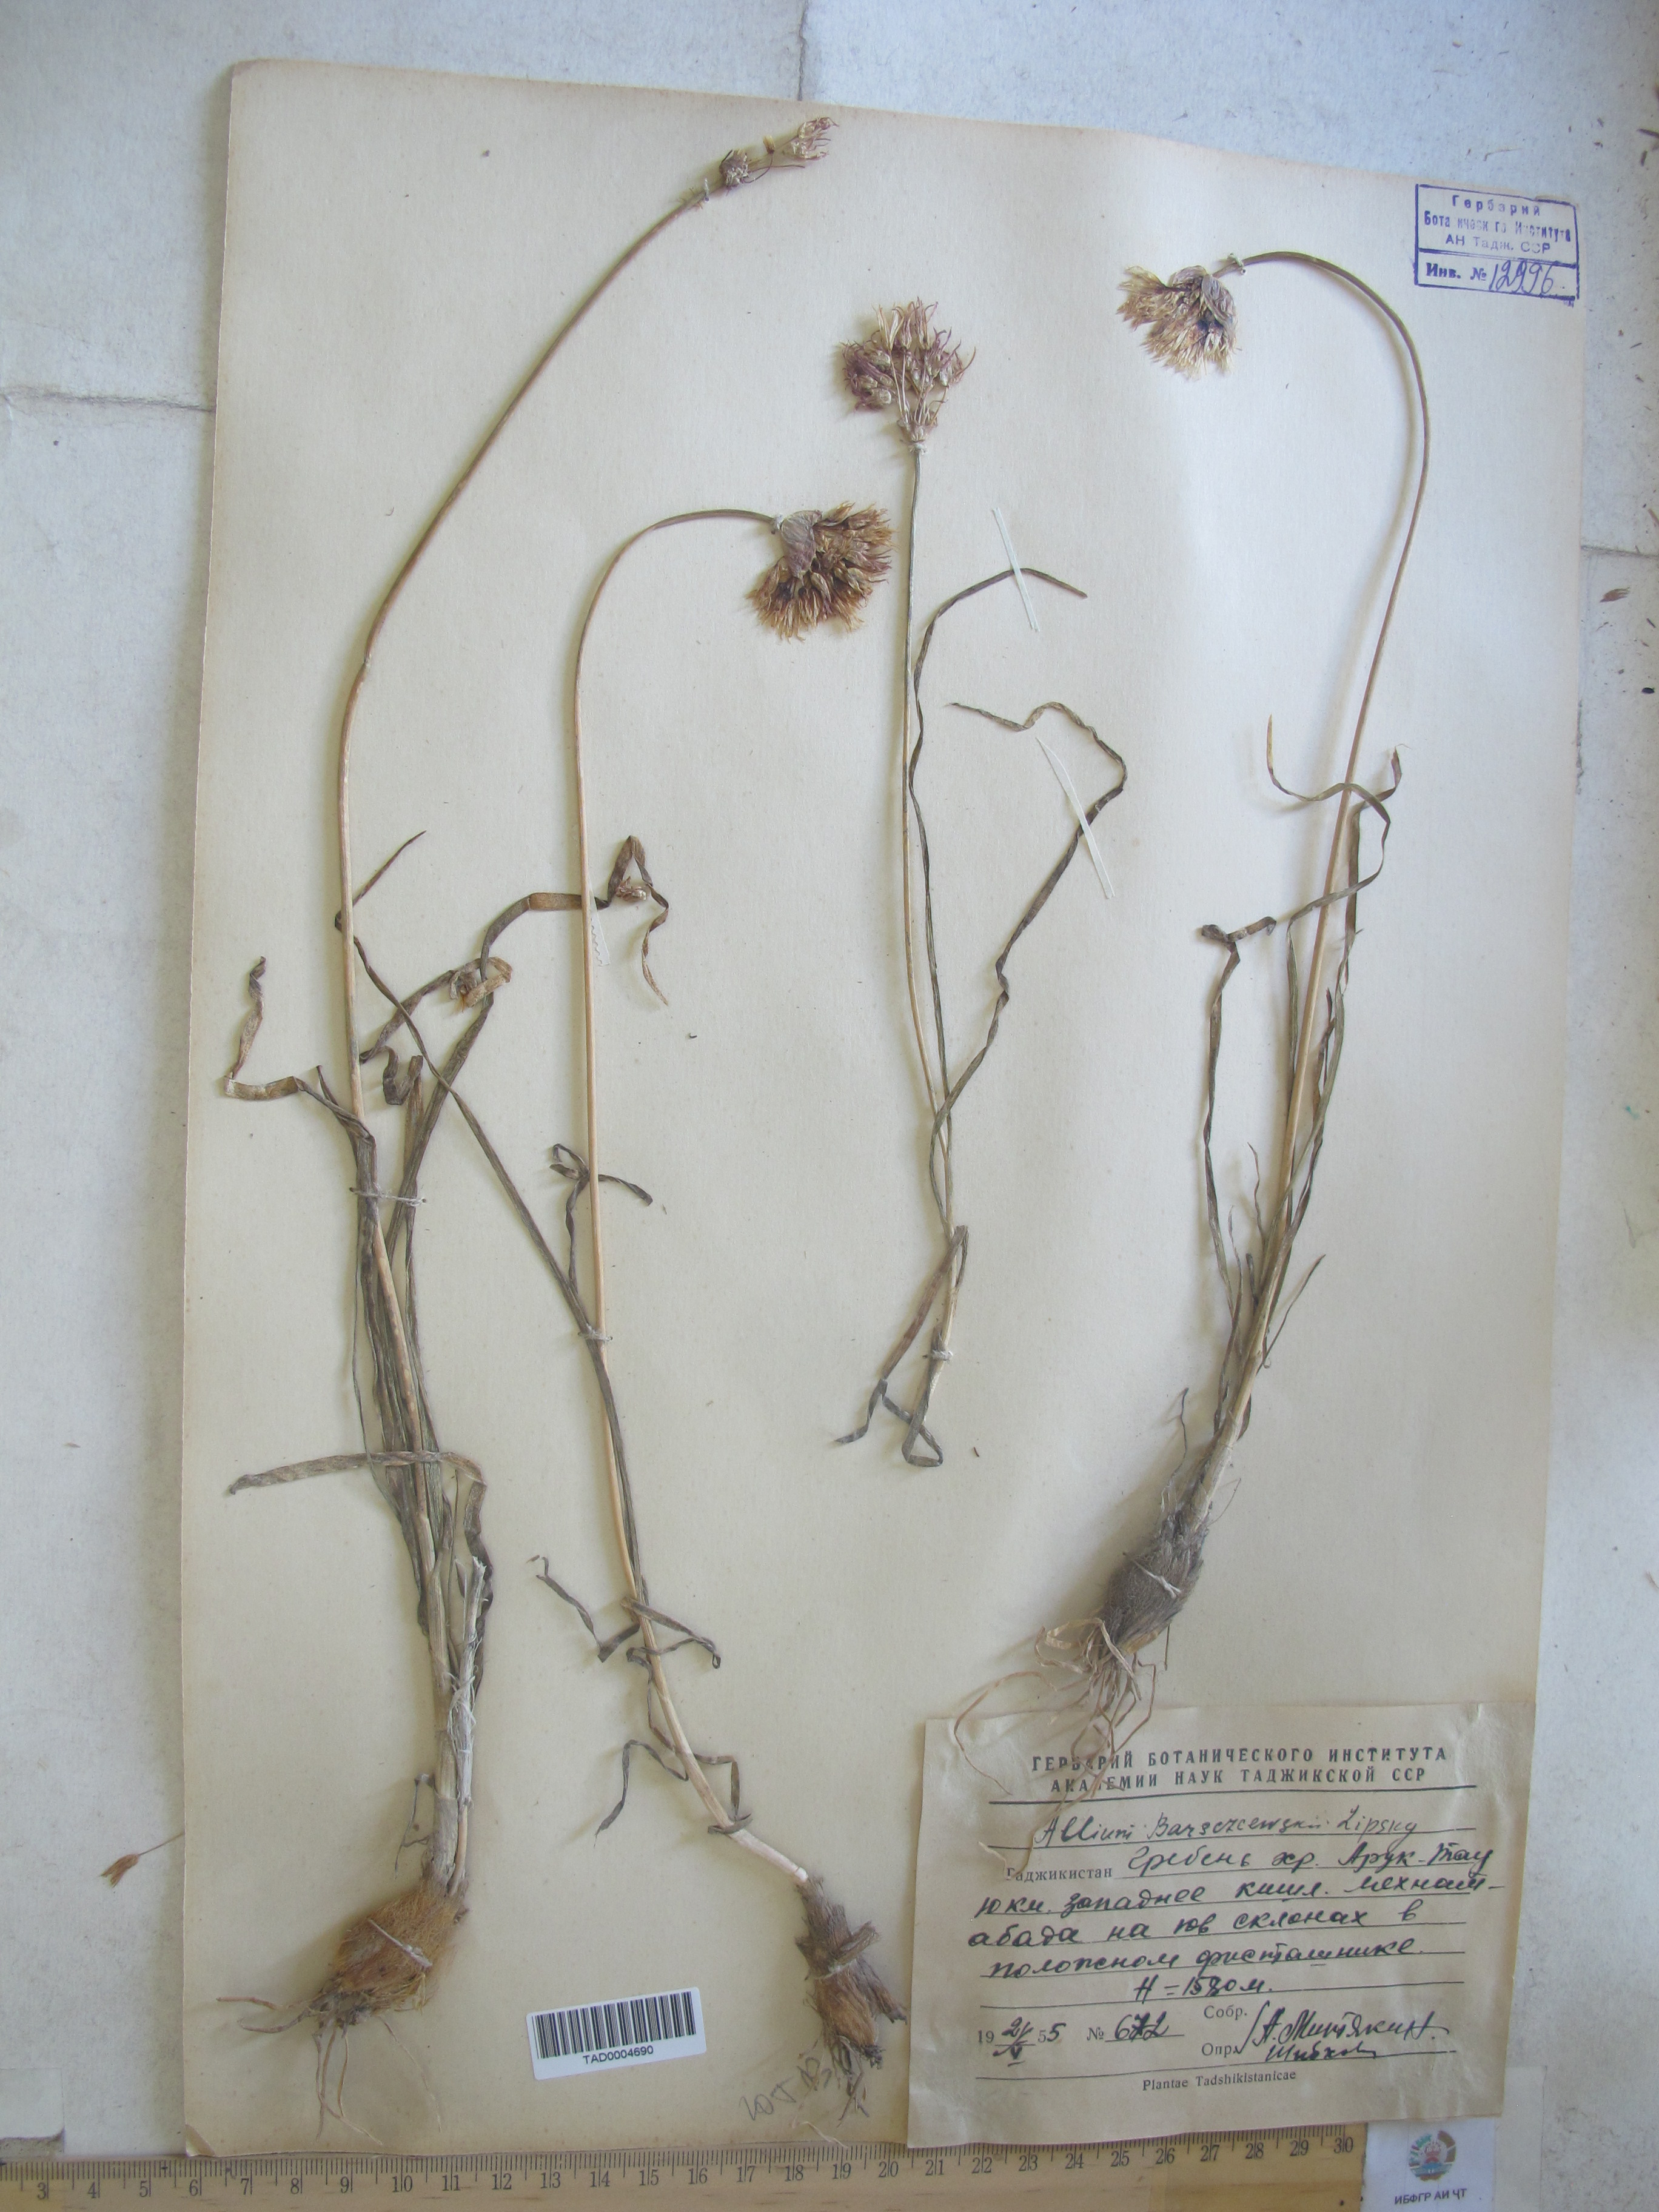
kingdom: Plantae
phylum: Tracheophyta
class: Liliopsida
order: Asparagales
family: Amaryllidaceae
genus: Allium
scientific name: Allium barsczewskii
